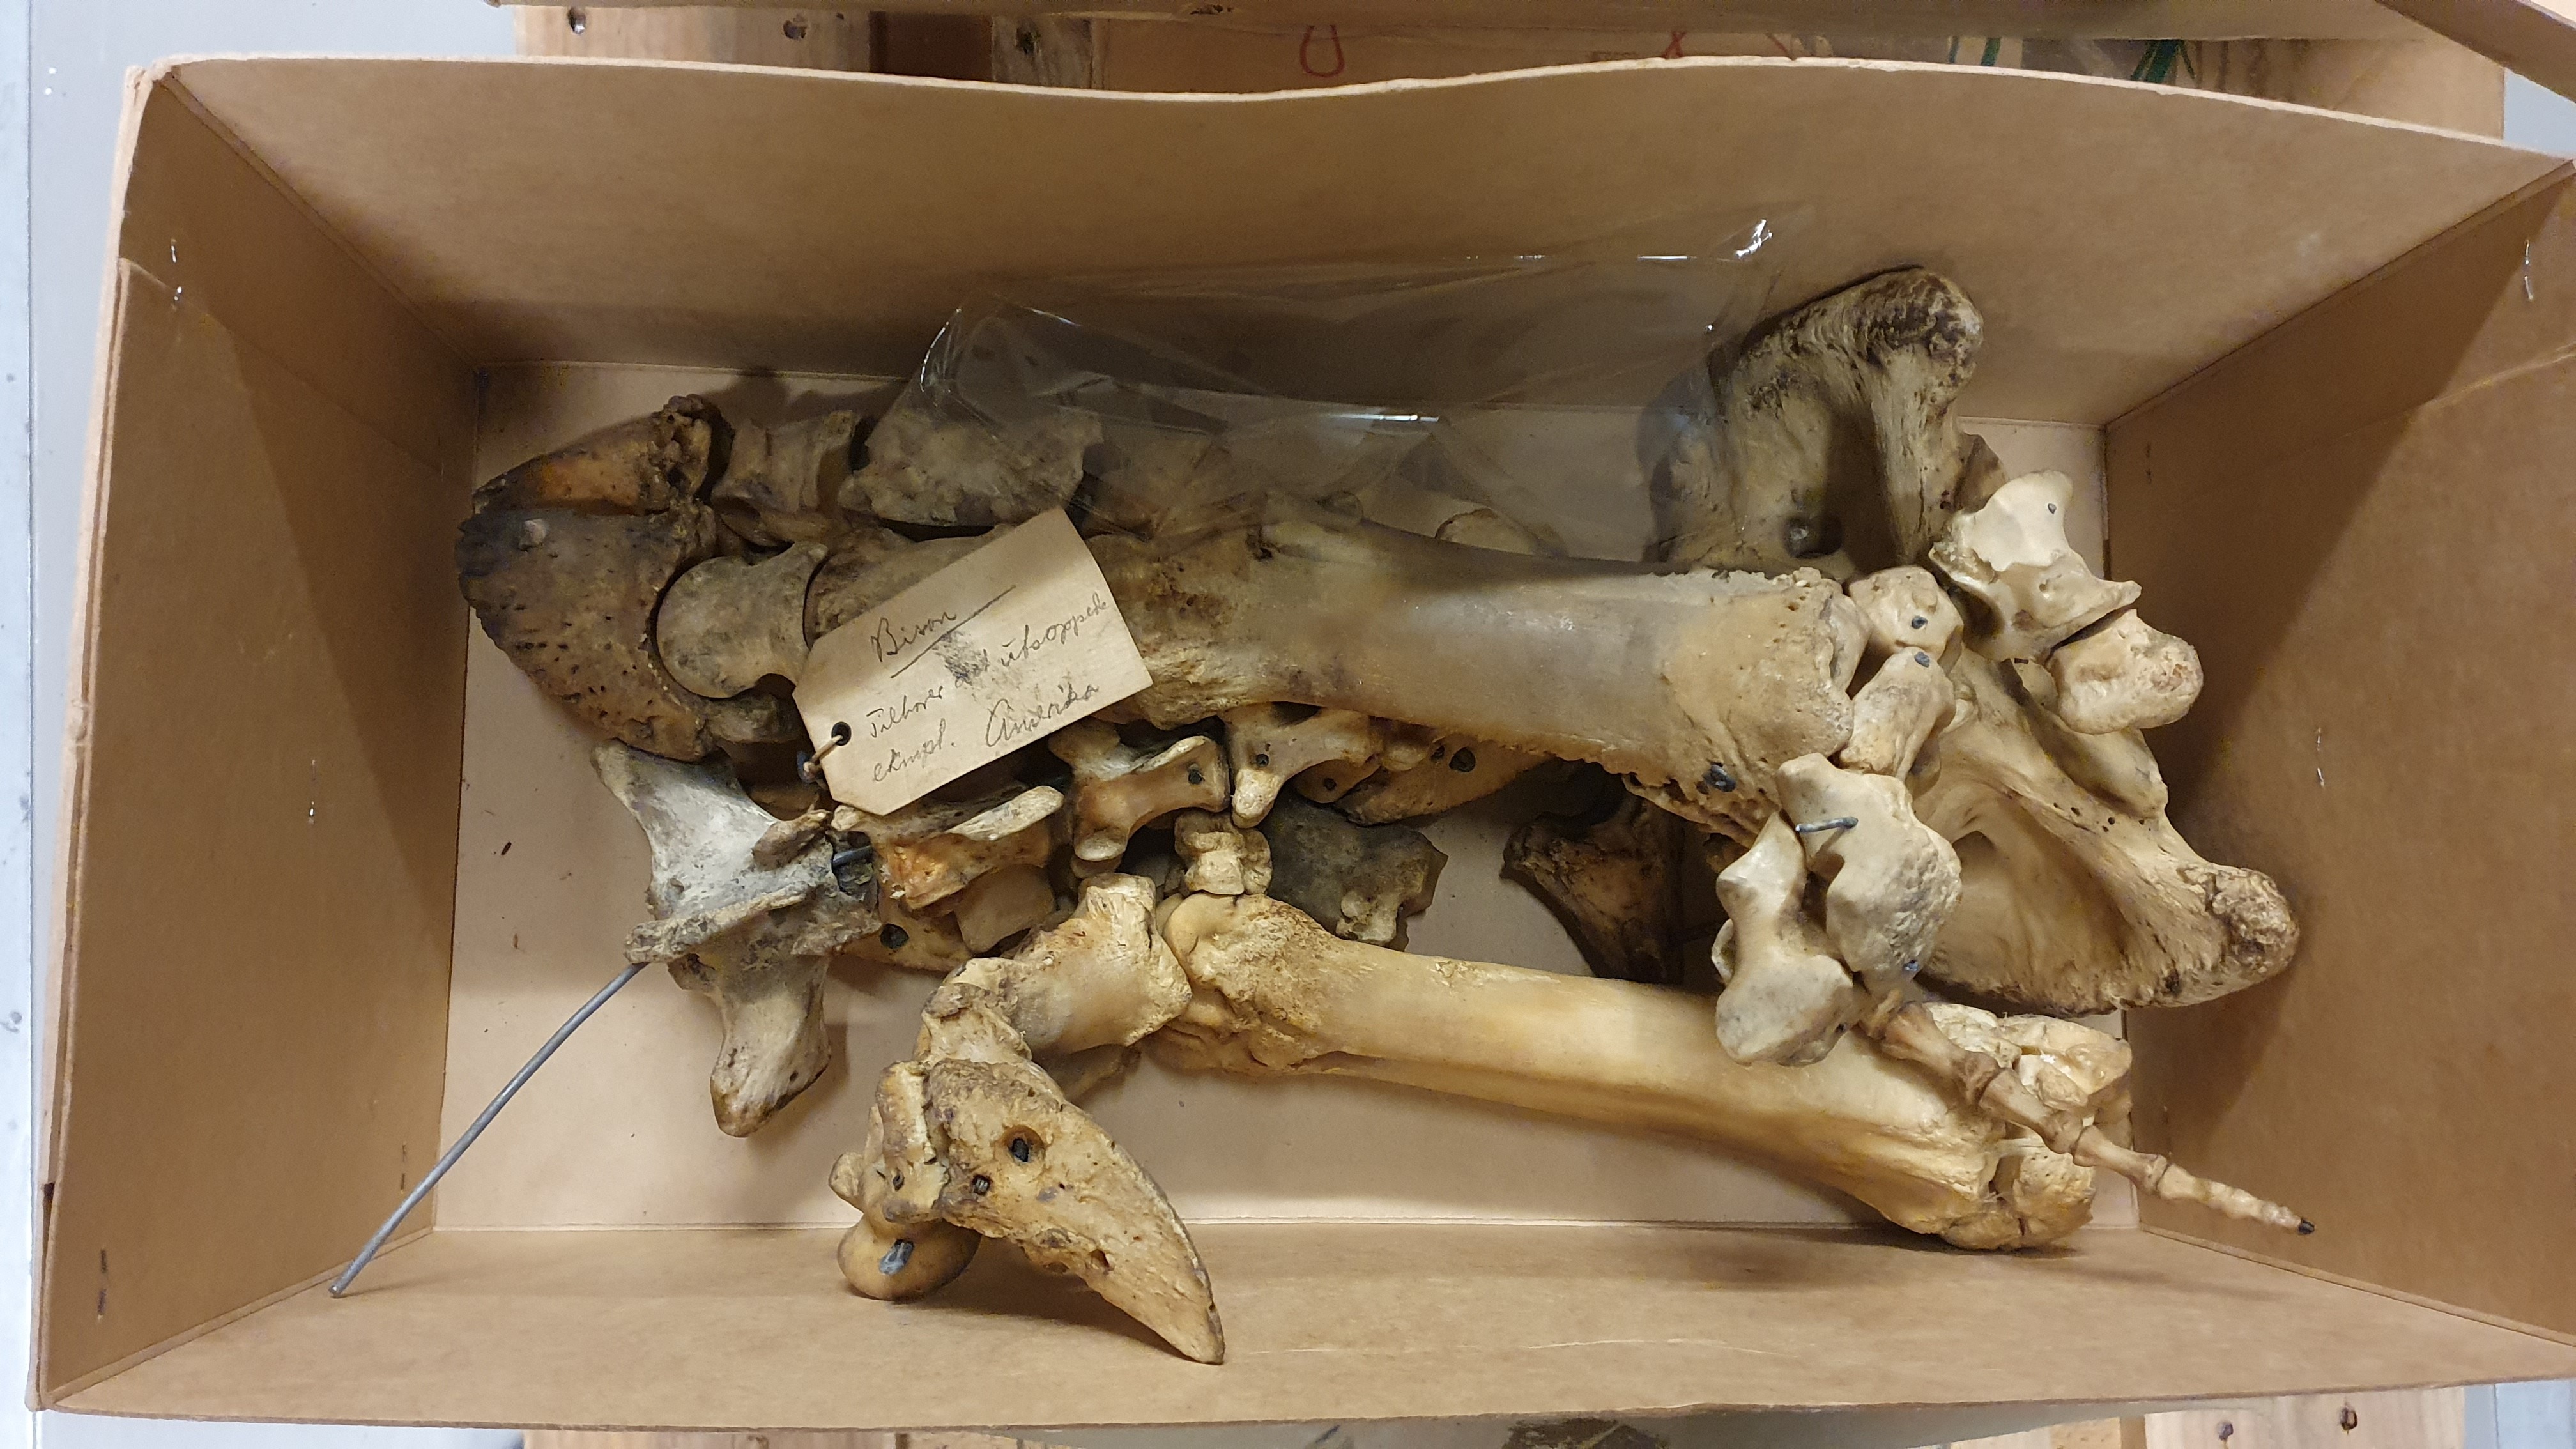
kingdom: Animalia
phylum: Chordata
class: Mammalia
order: Artiodactyla
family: Bovidae
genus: Bison
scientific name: Bison bison
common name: American bison
